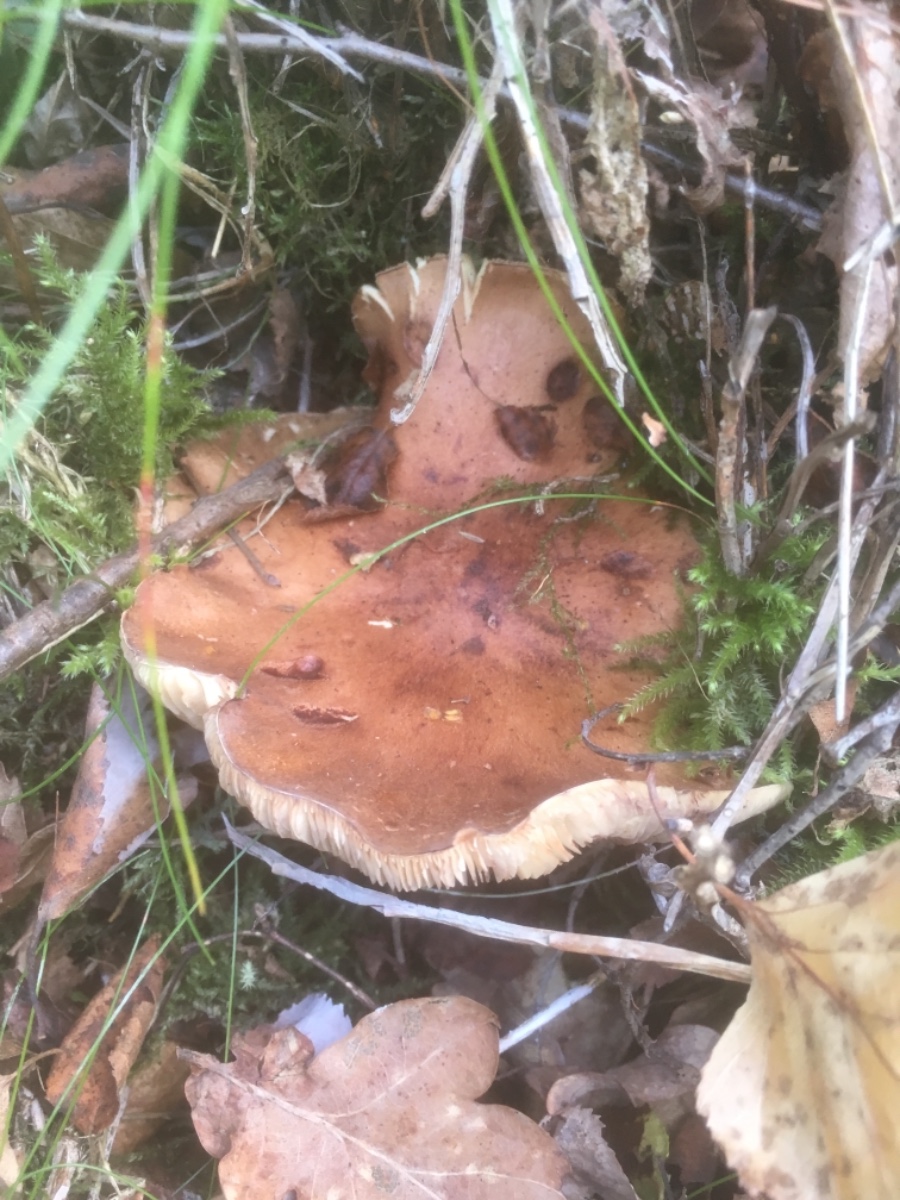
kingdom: Fungi
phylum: Basidiomycota
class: Agaricomycetes
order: Agaricales
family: Tricholomataceae
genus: Tricholoma
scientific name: Tricholoma fulvum
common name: birke-ridderhat
